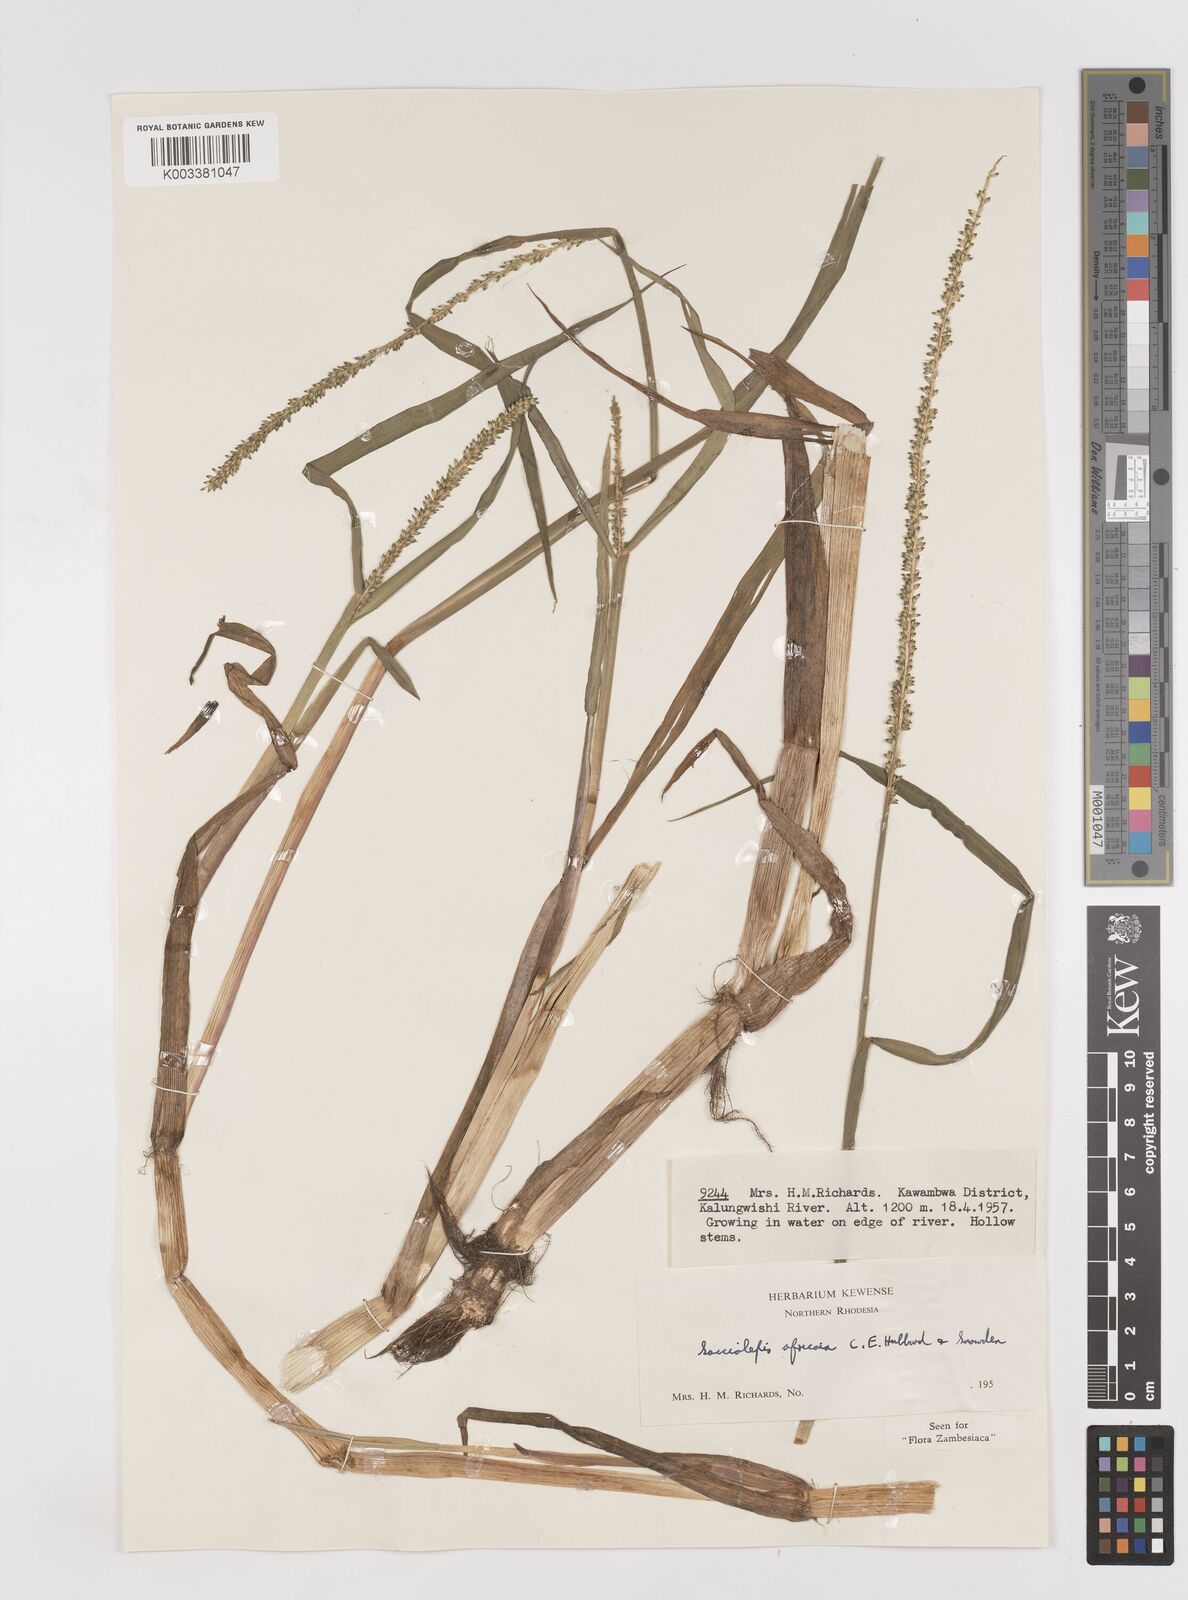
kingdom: Plantae
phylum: Tracheophyta
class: Liliopsida
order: Poales
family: Poaceae
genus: Sacciolepis
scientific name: Sacciolepis africana
